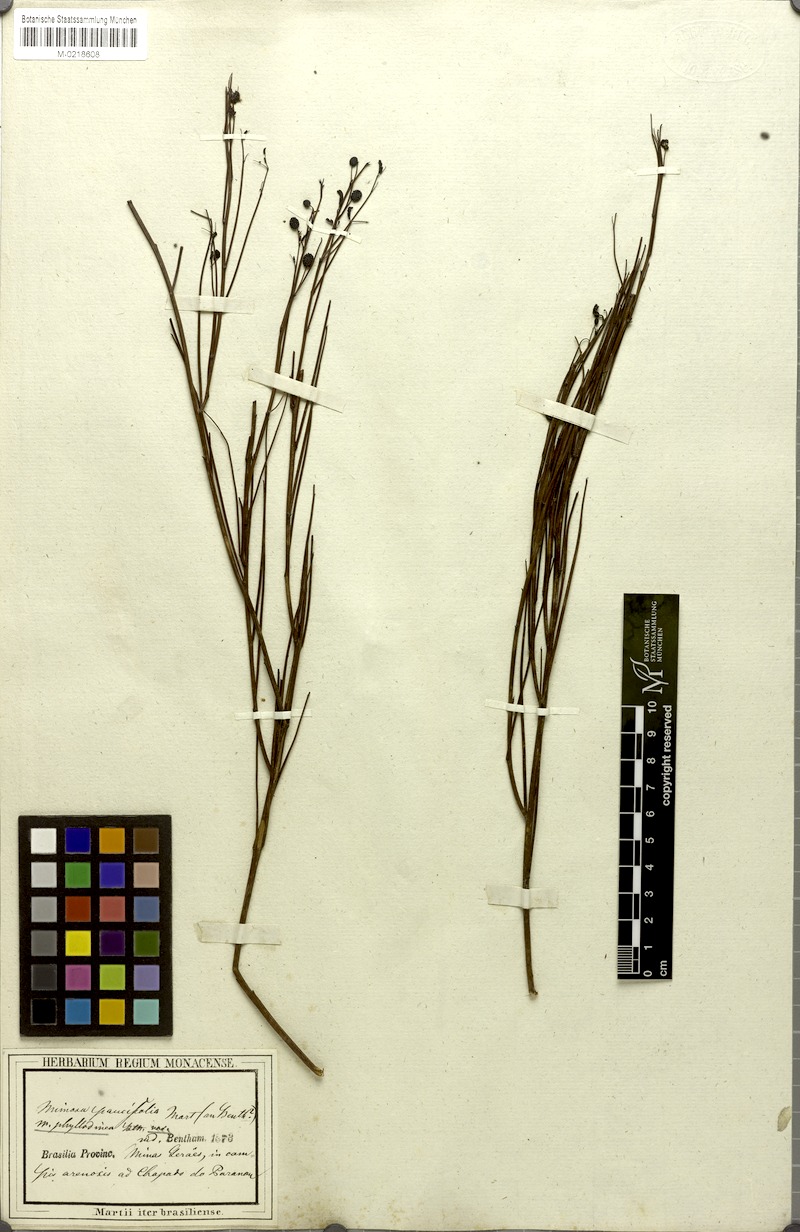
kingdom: Plantae
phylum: Tracheophyta
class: Magnoliopsida
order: Fabales
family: Fabaceae
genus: Mimosa
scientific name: Mimosa piptoptera
